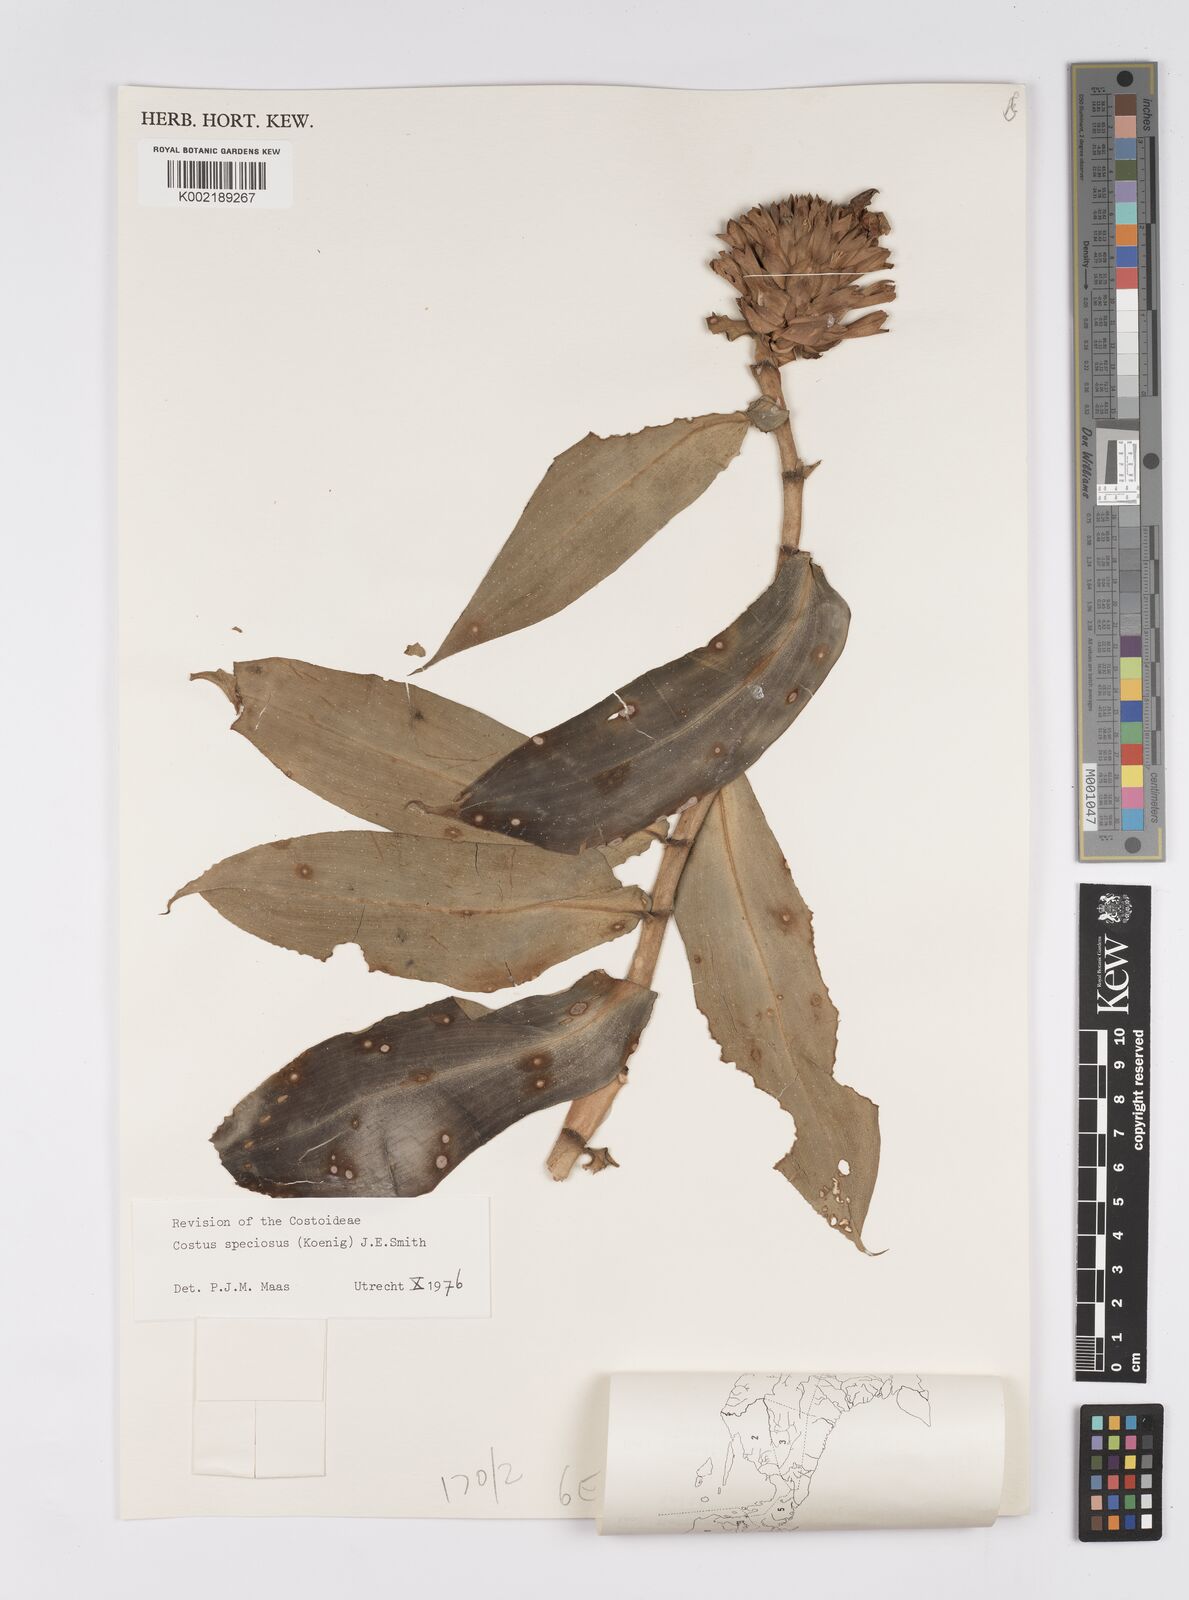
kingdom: Plantae
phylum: Tracheophyta
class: Liliopsida
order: Zingiberales
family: Costaceae
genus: Hellenia
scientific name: Hellenia speciosa
